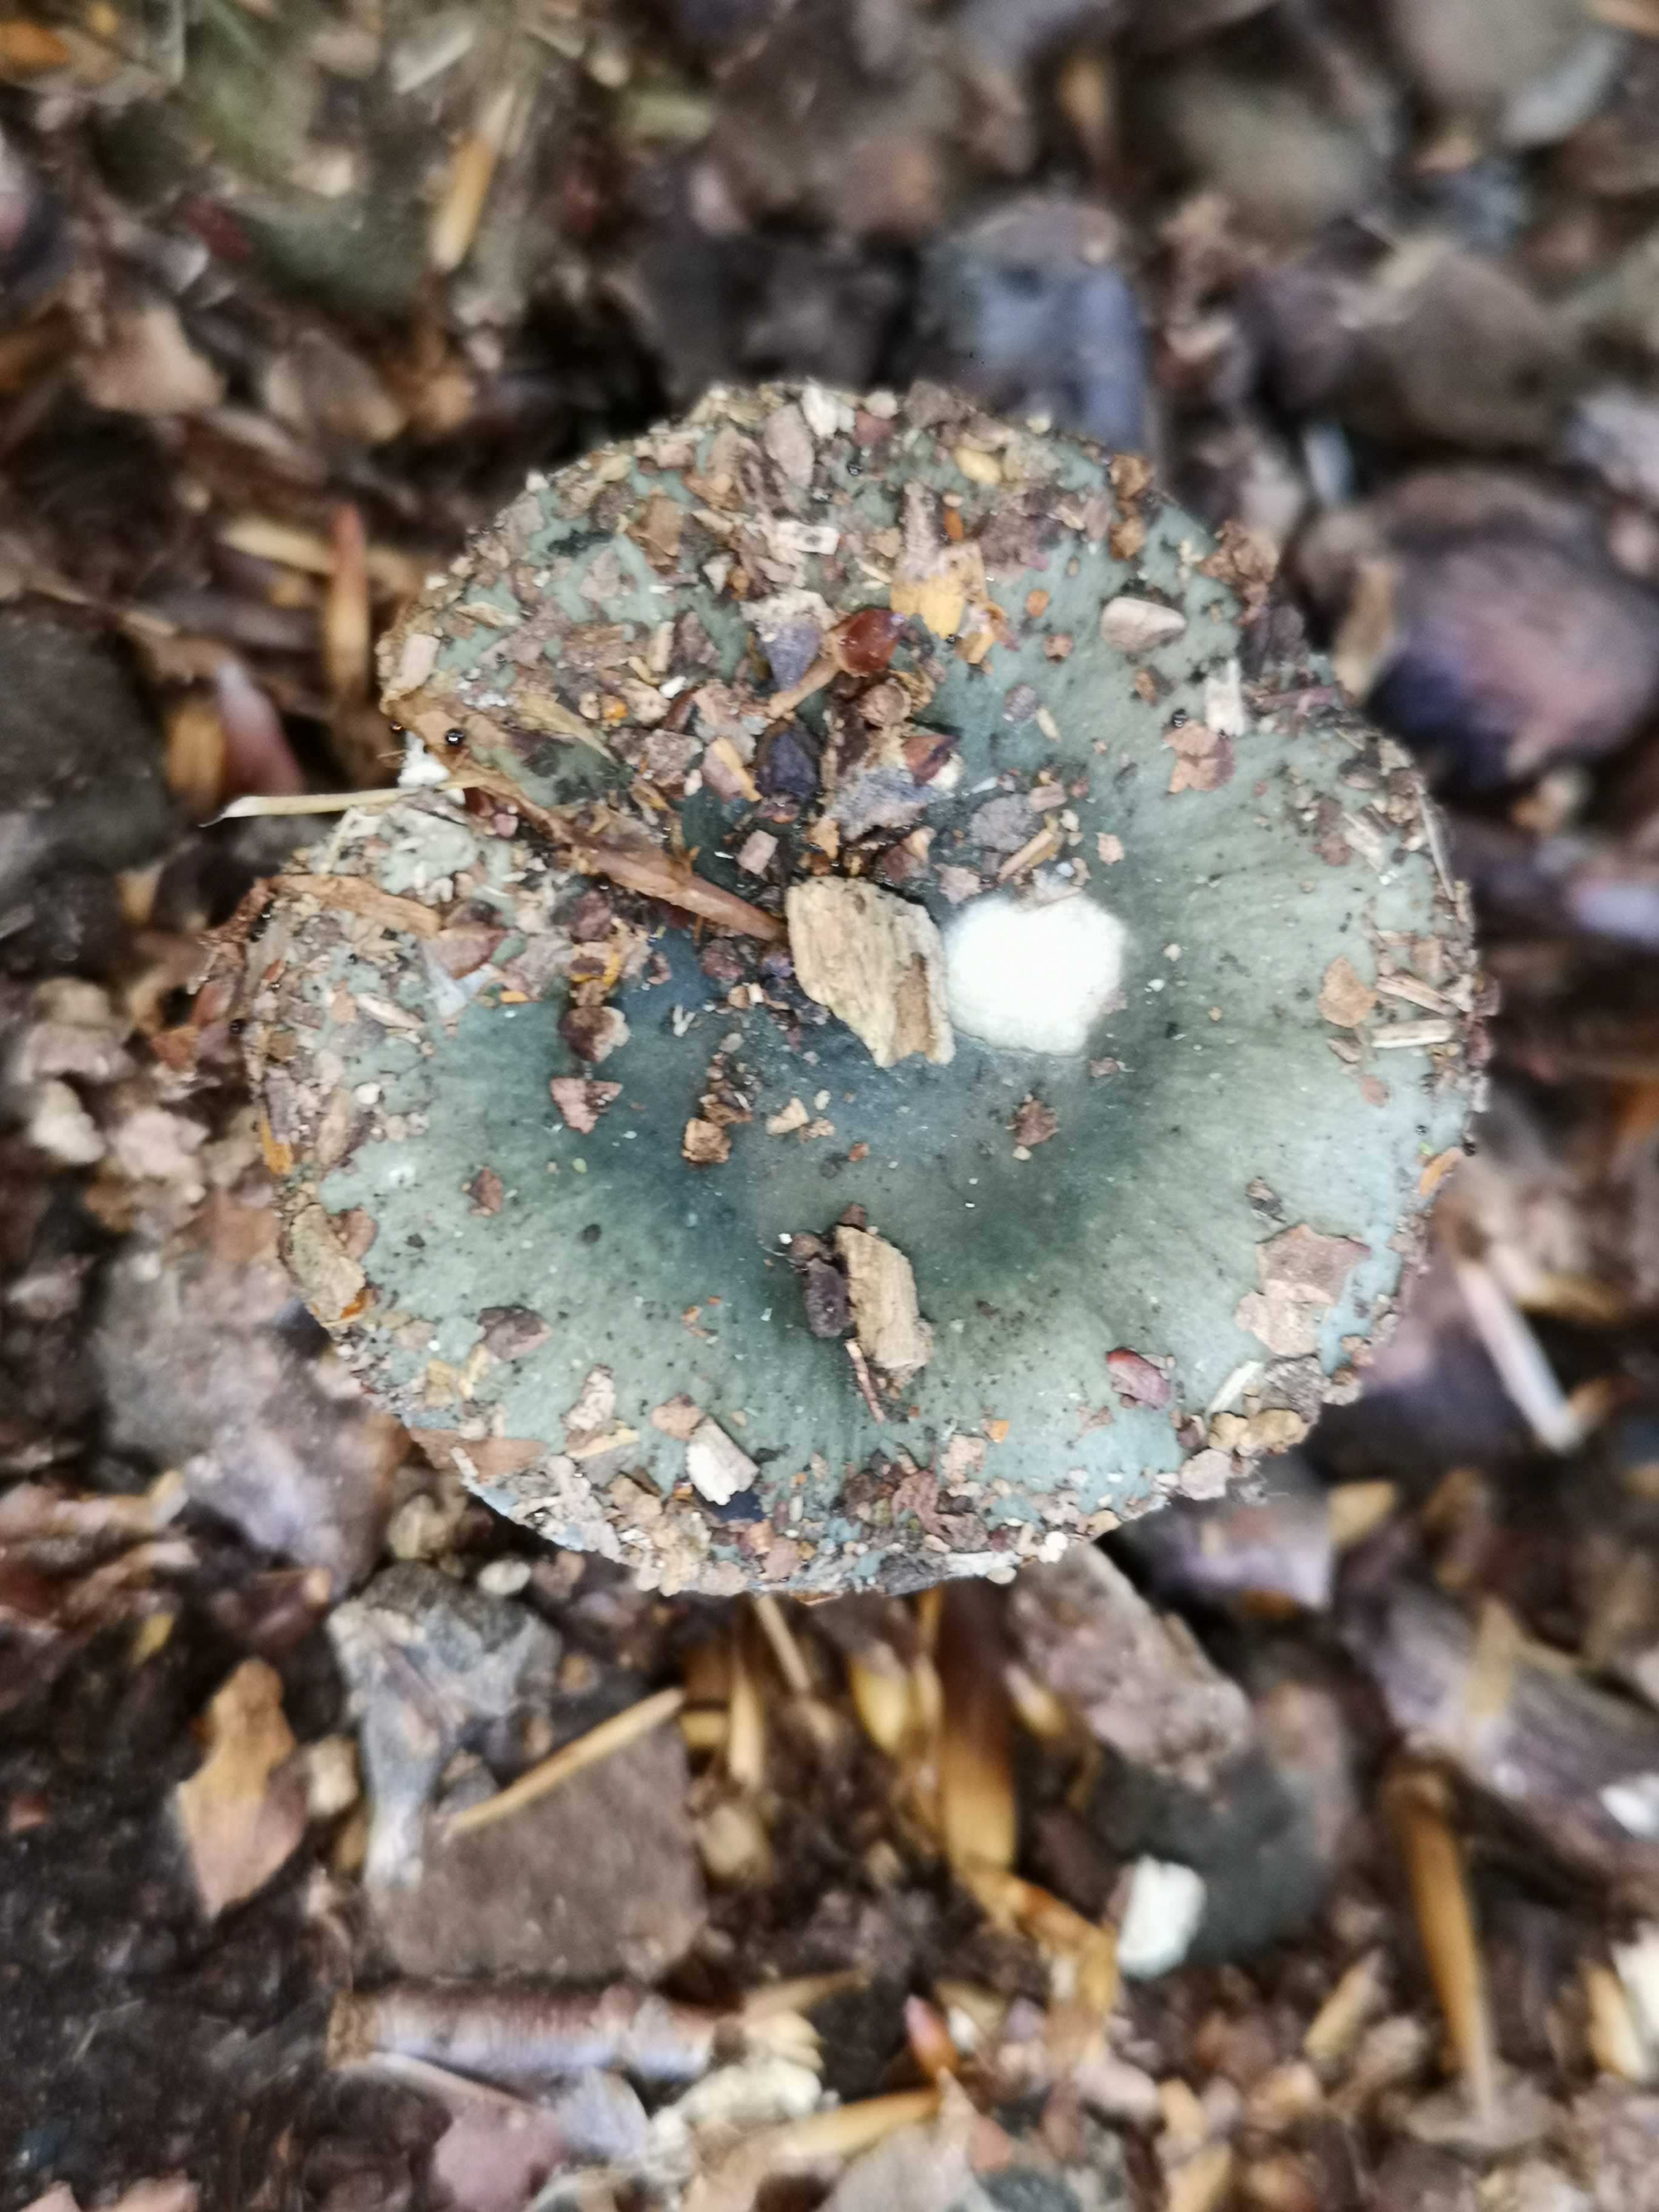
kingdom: Fungi
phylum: Basidiomycota
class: Agaricomycetes
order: Russulales
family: Russulaceae
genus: Russula
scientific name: Russula cyanoxantha
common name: broget skørhat
